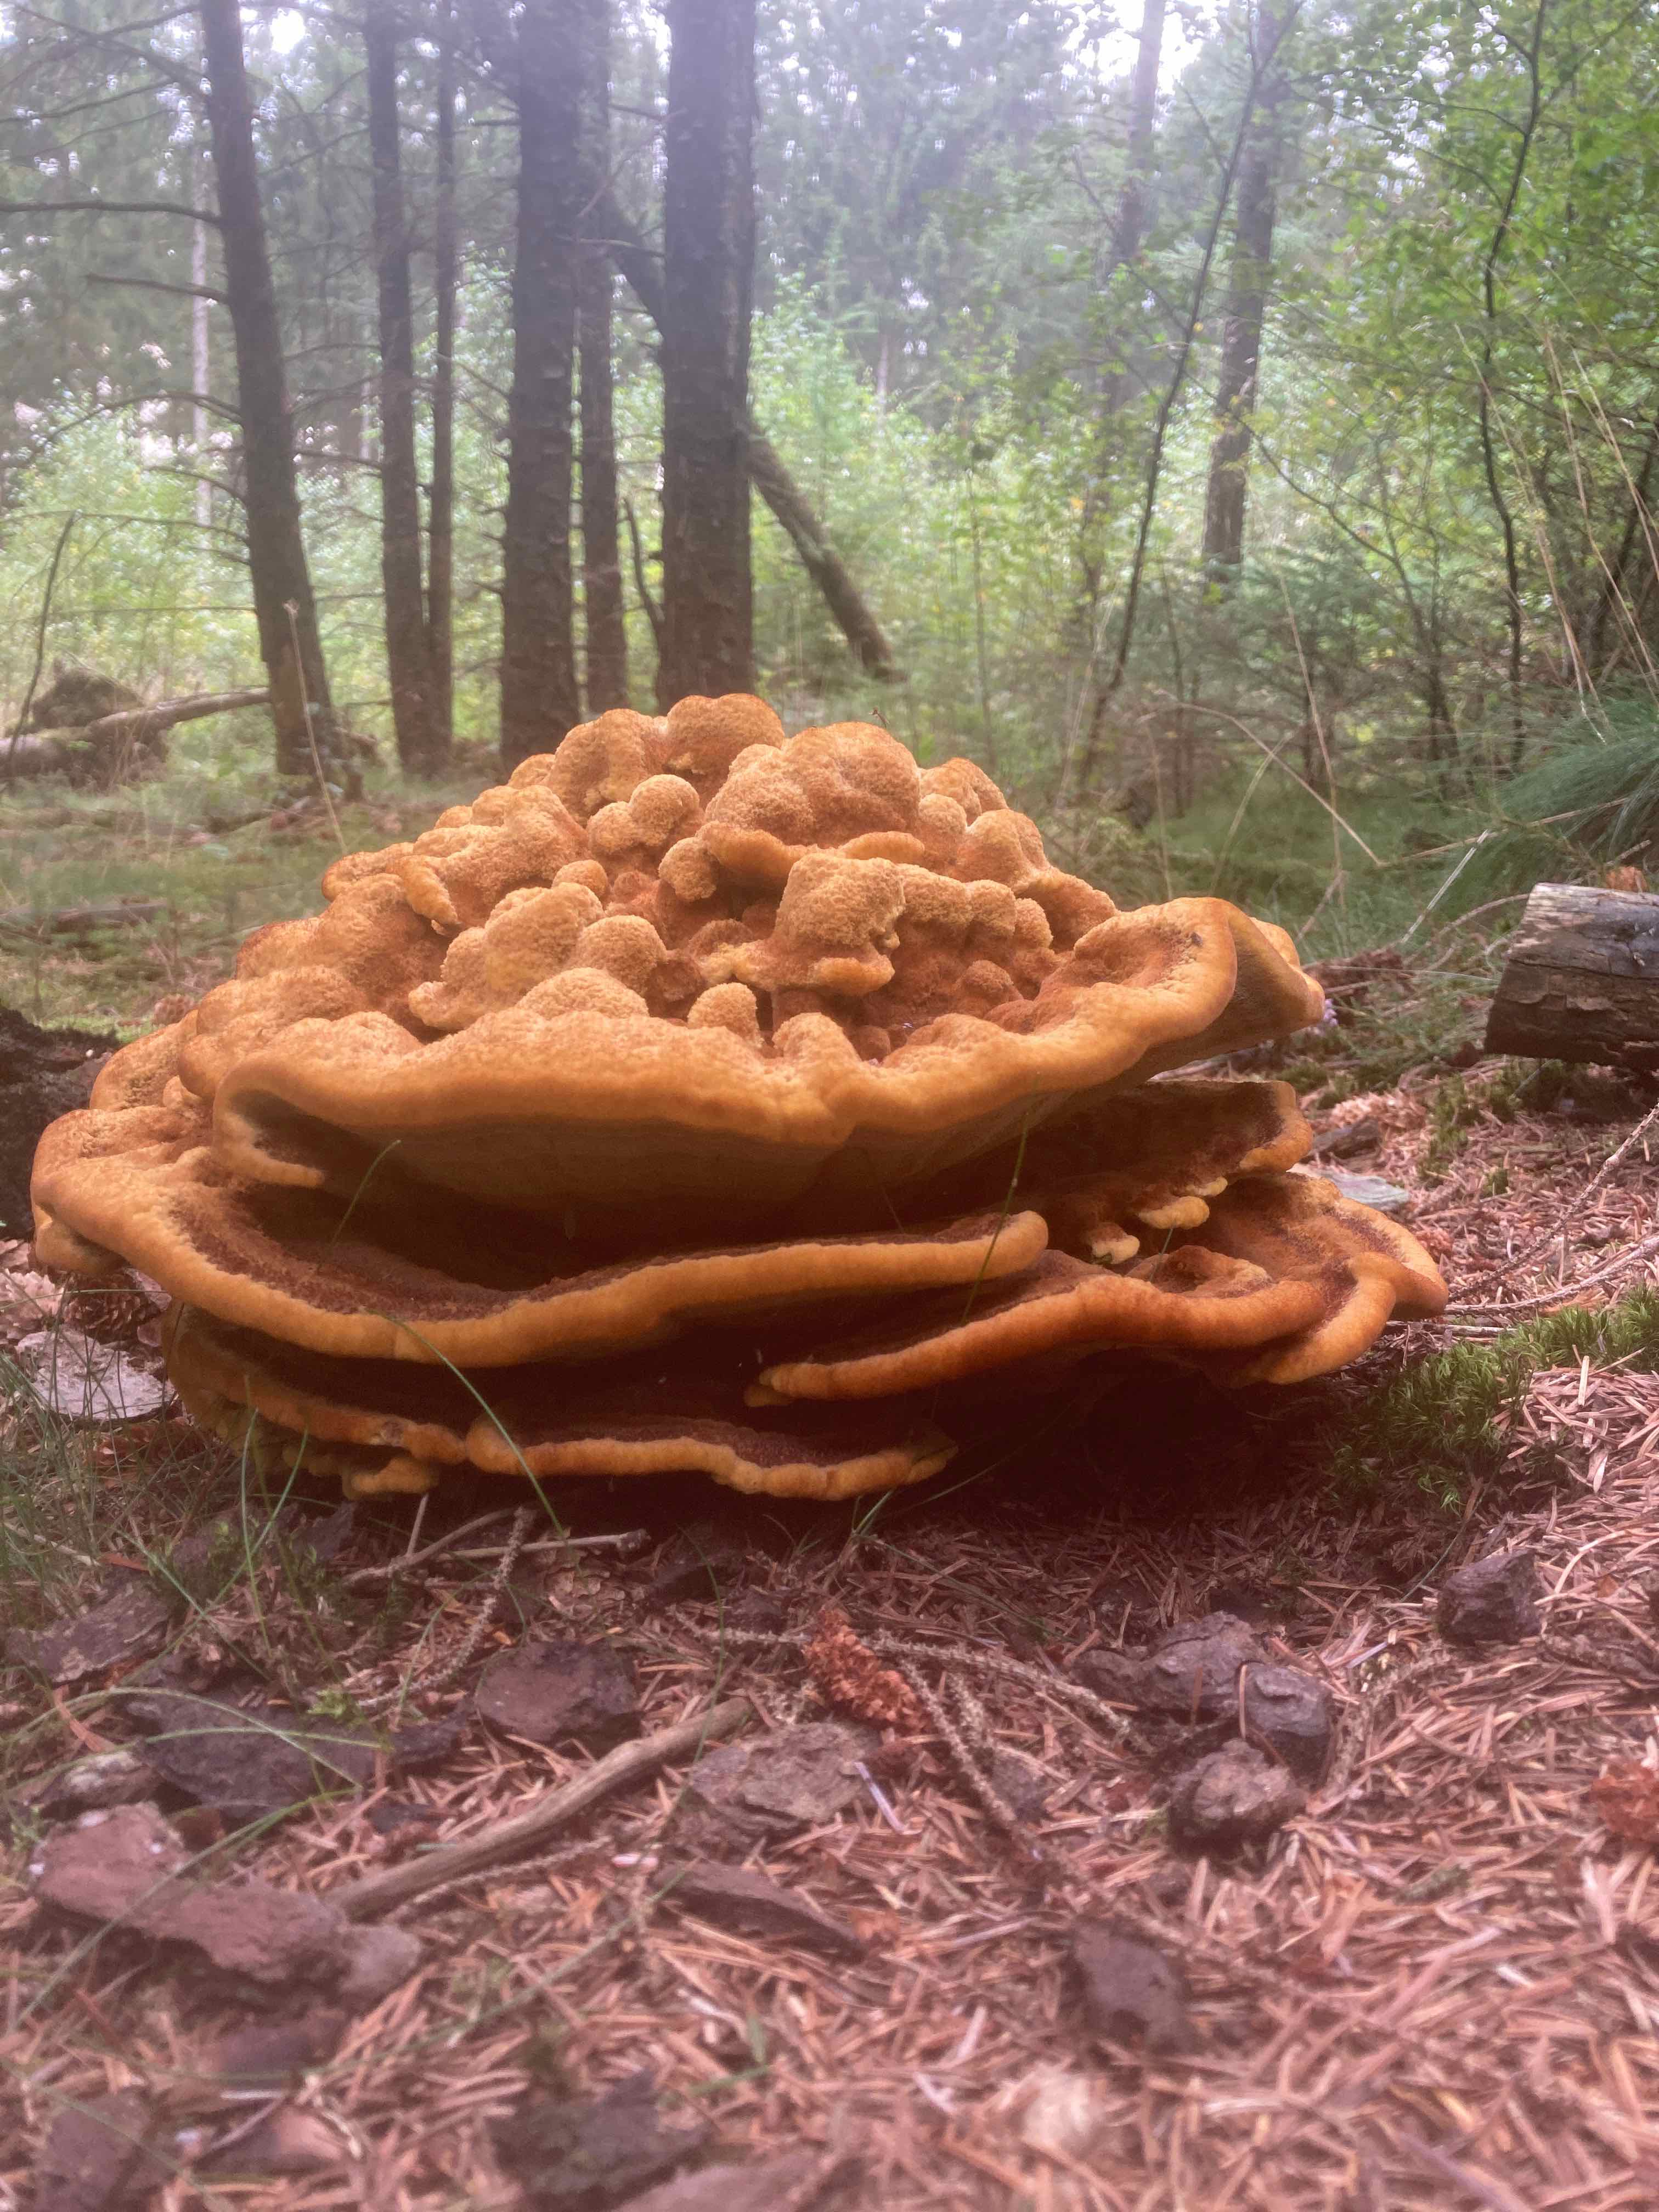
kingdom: Fungi
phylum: Basidiomycota
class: Agaricomycetes
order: Polyporales
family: Laetiporaceae
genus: Phaeolus
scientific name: Phaeolus schweinitzii
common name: brunporesvamp
